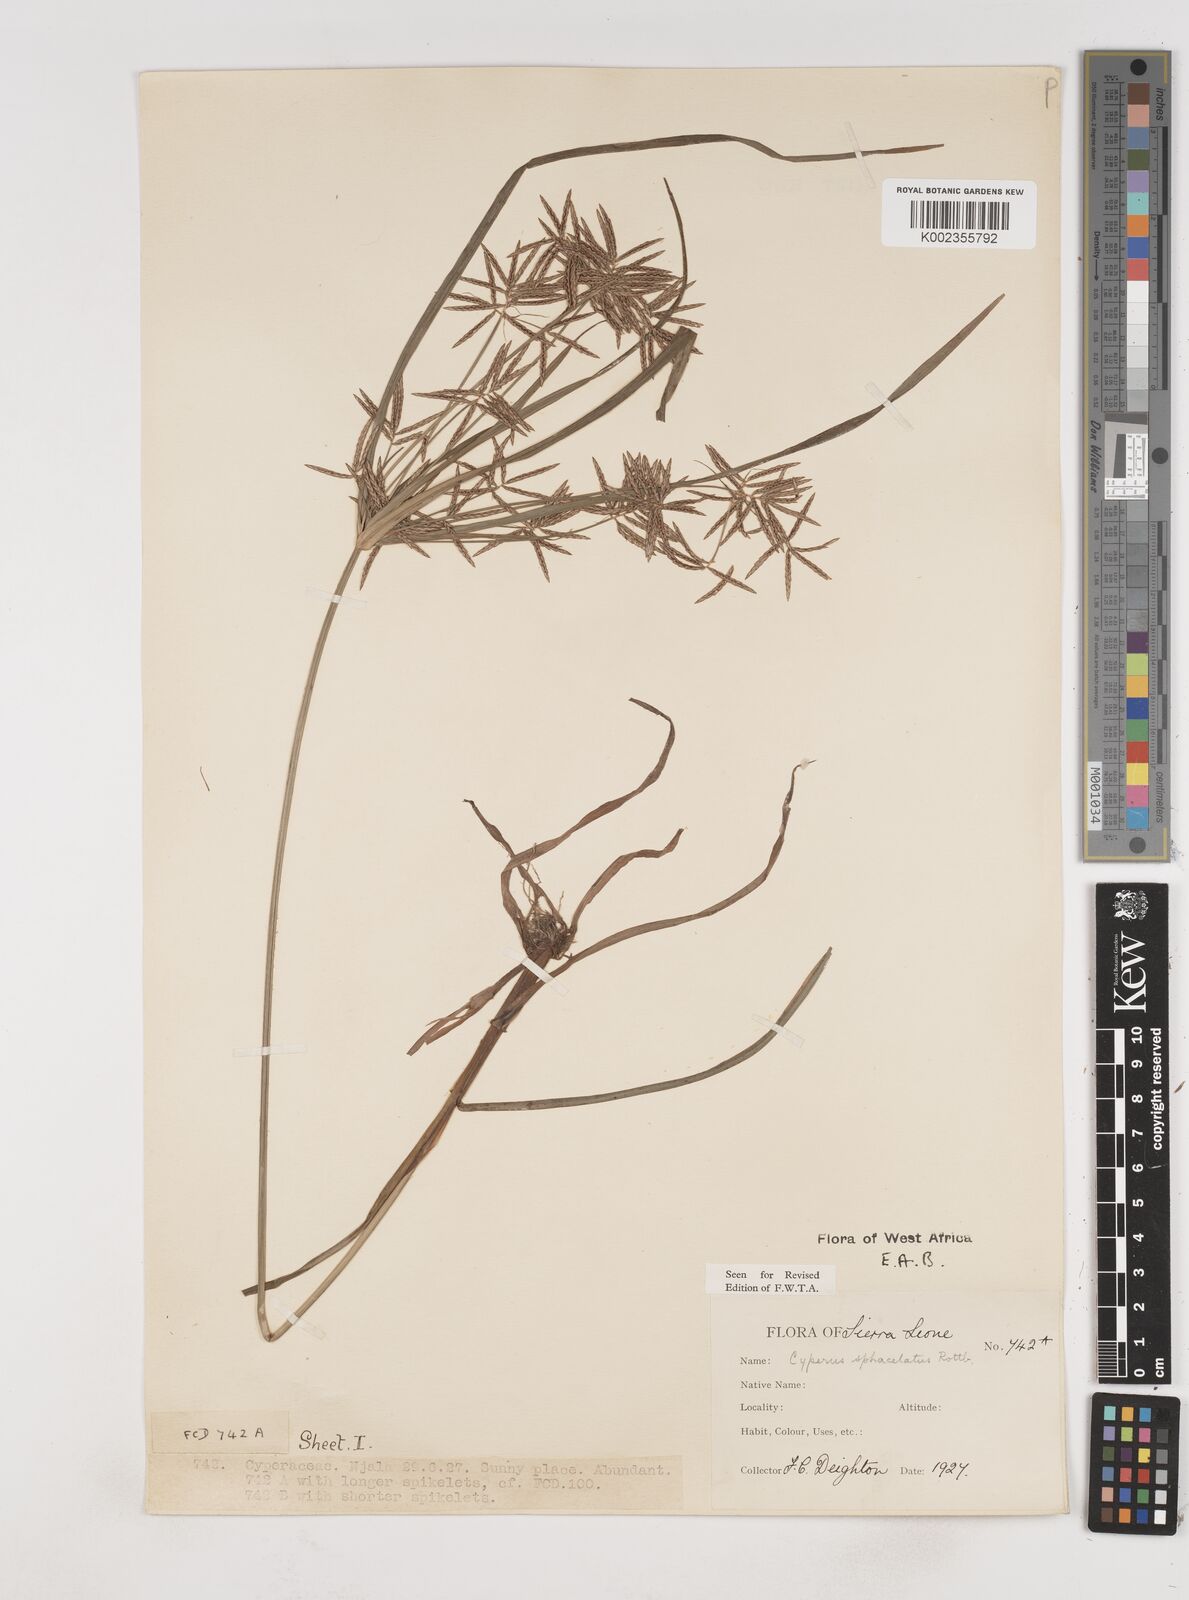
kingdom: Plantae
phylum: Tracheophyta
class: Liliopsida
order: Poales
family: Cyperaceae
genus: Cyperus
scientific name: Cyperus sphacelatus
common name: Roadside flatsedge
